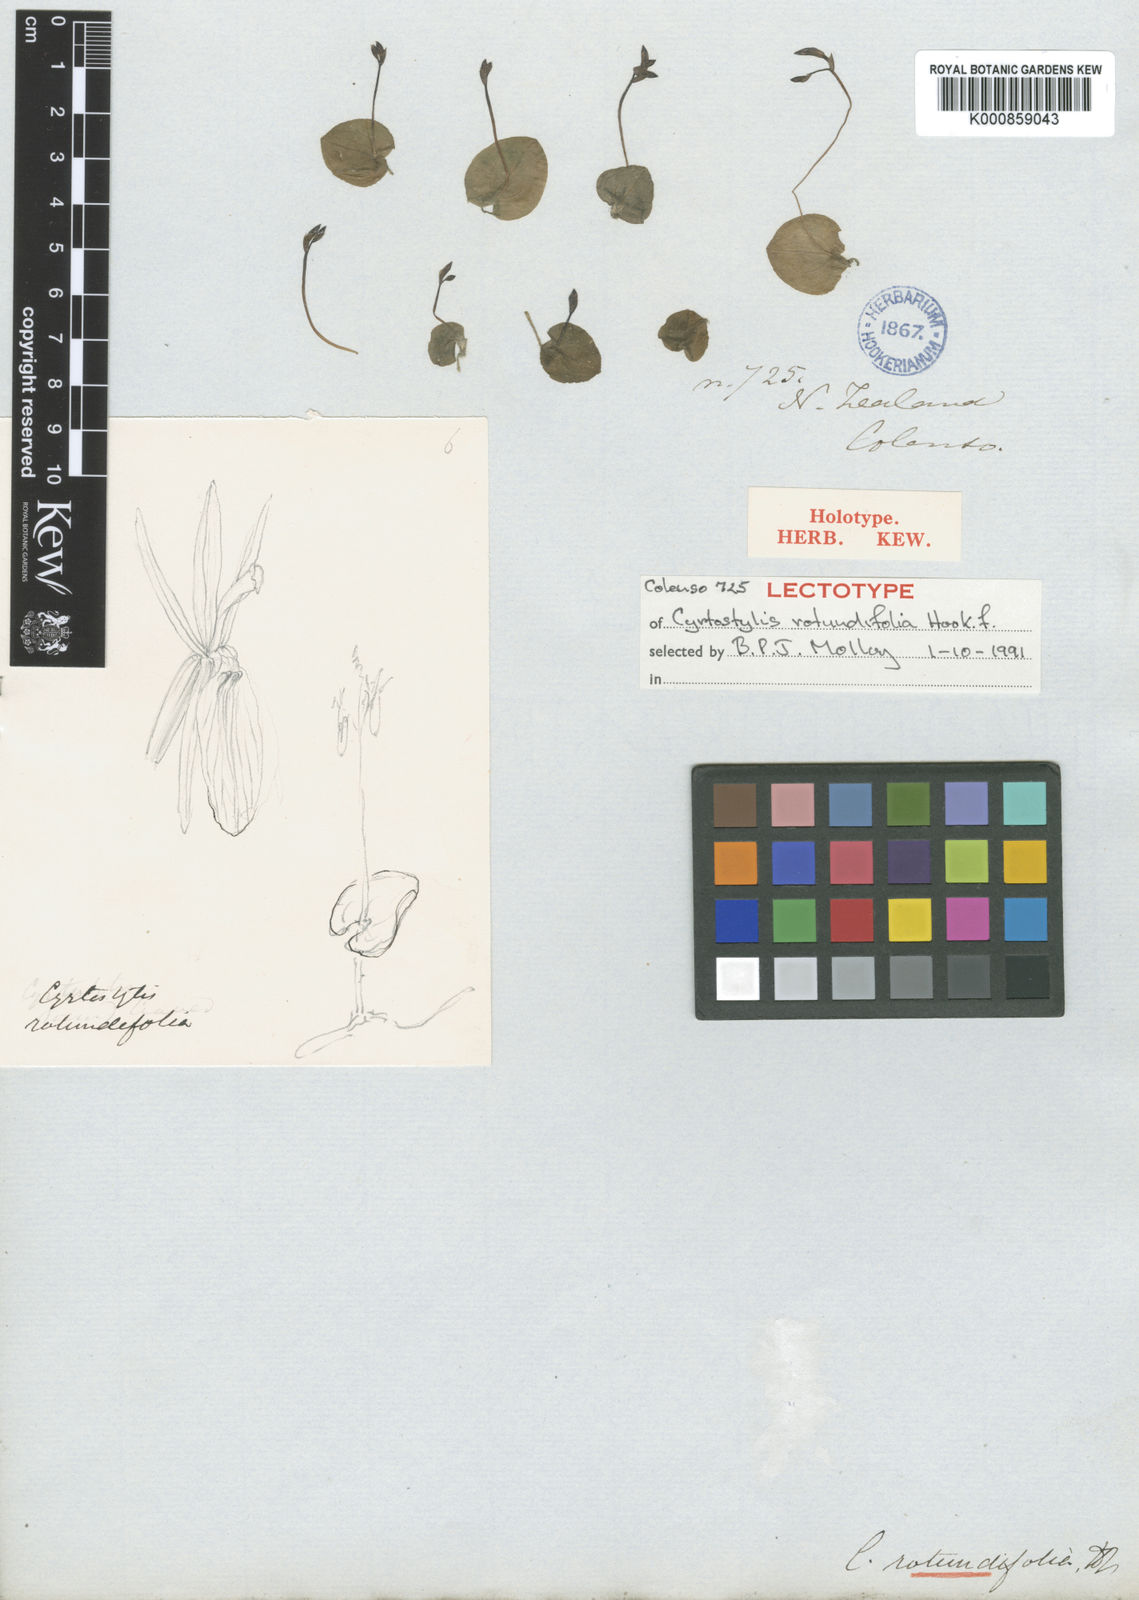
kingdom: Plantae
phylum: Tracheophyta
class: Liliopsida
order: Asparagales
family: Orchidaceae
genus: Cyrtostylis
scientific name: Cyrtostylis rotundifolia
